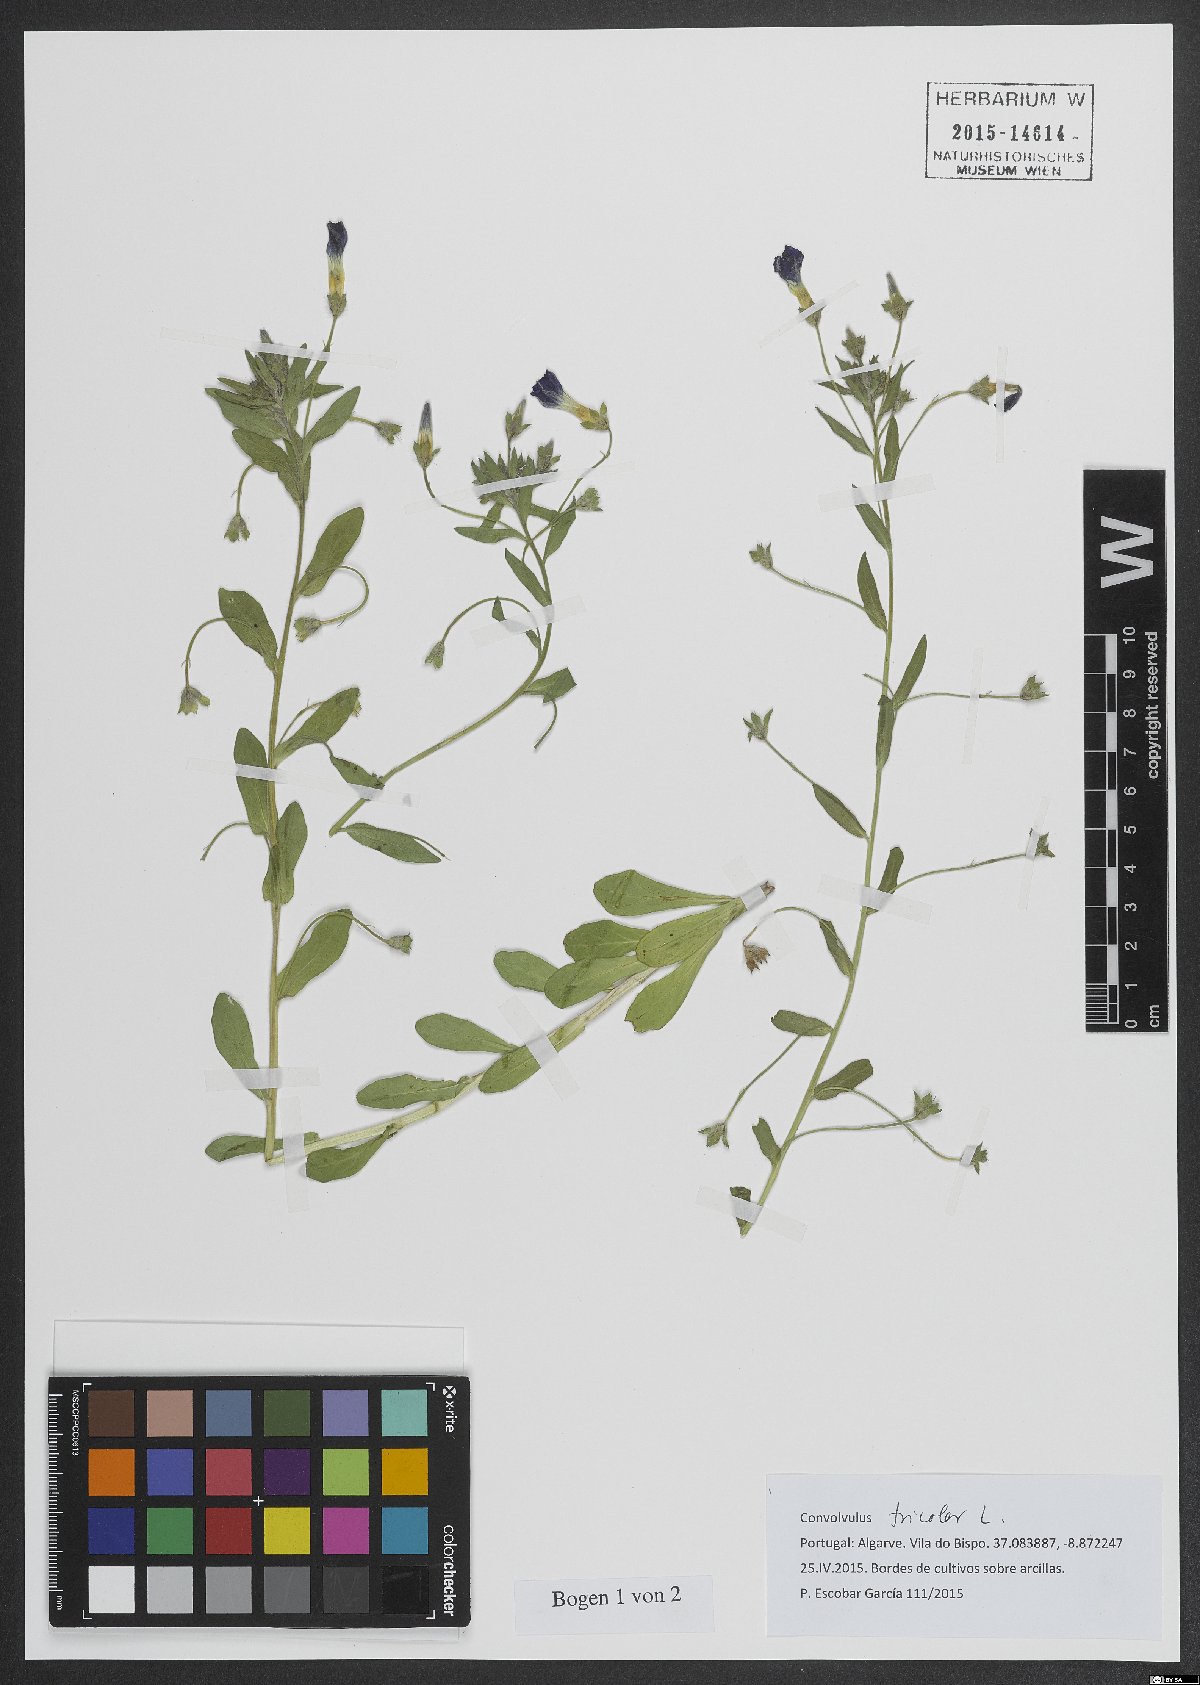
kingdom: Plantae
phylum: Tracheophyta
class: Magnoliopsida
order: Solanales
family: Convolvulaceae
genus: Convolvulus
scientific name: Convolvulus tricolor
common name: Dwarf morning-glory
